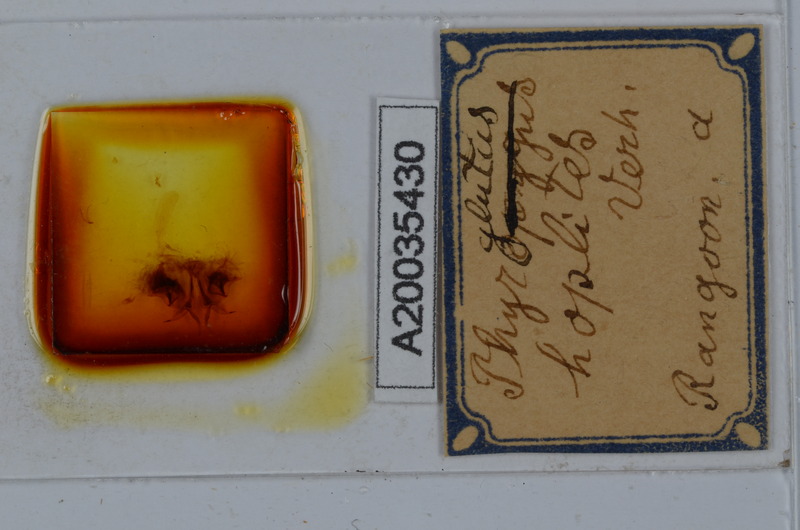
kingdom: Animalia
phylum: Arthropoda
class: Diplopoda
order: Spirostreptida
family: Harpagophoridae
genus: Gonoplectus
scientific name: Gonoplectus hoplites
